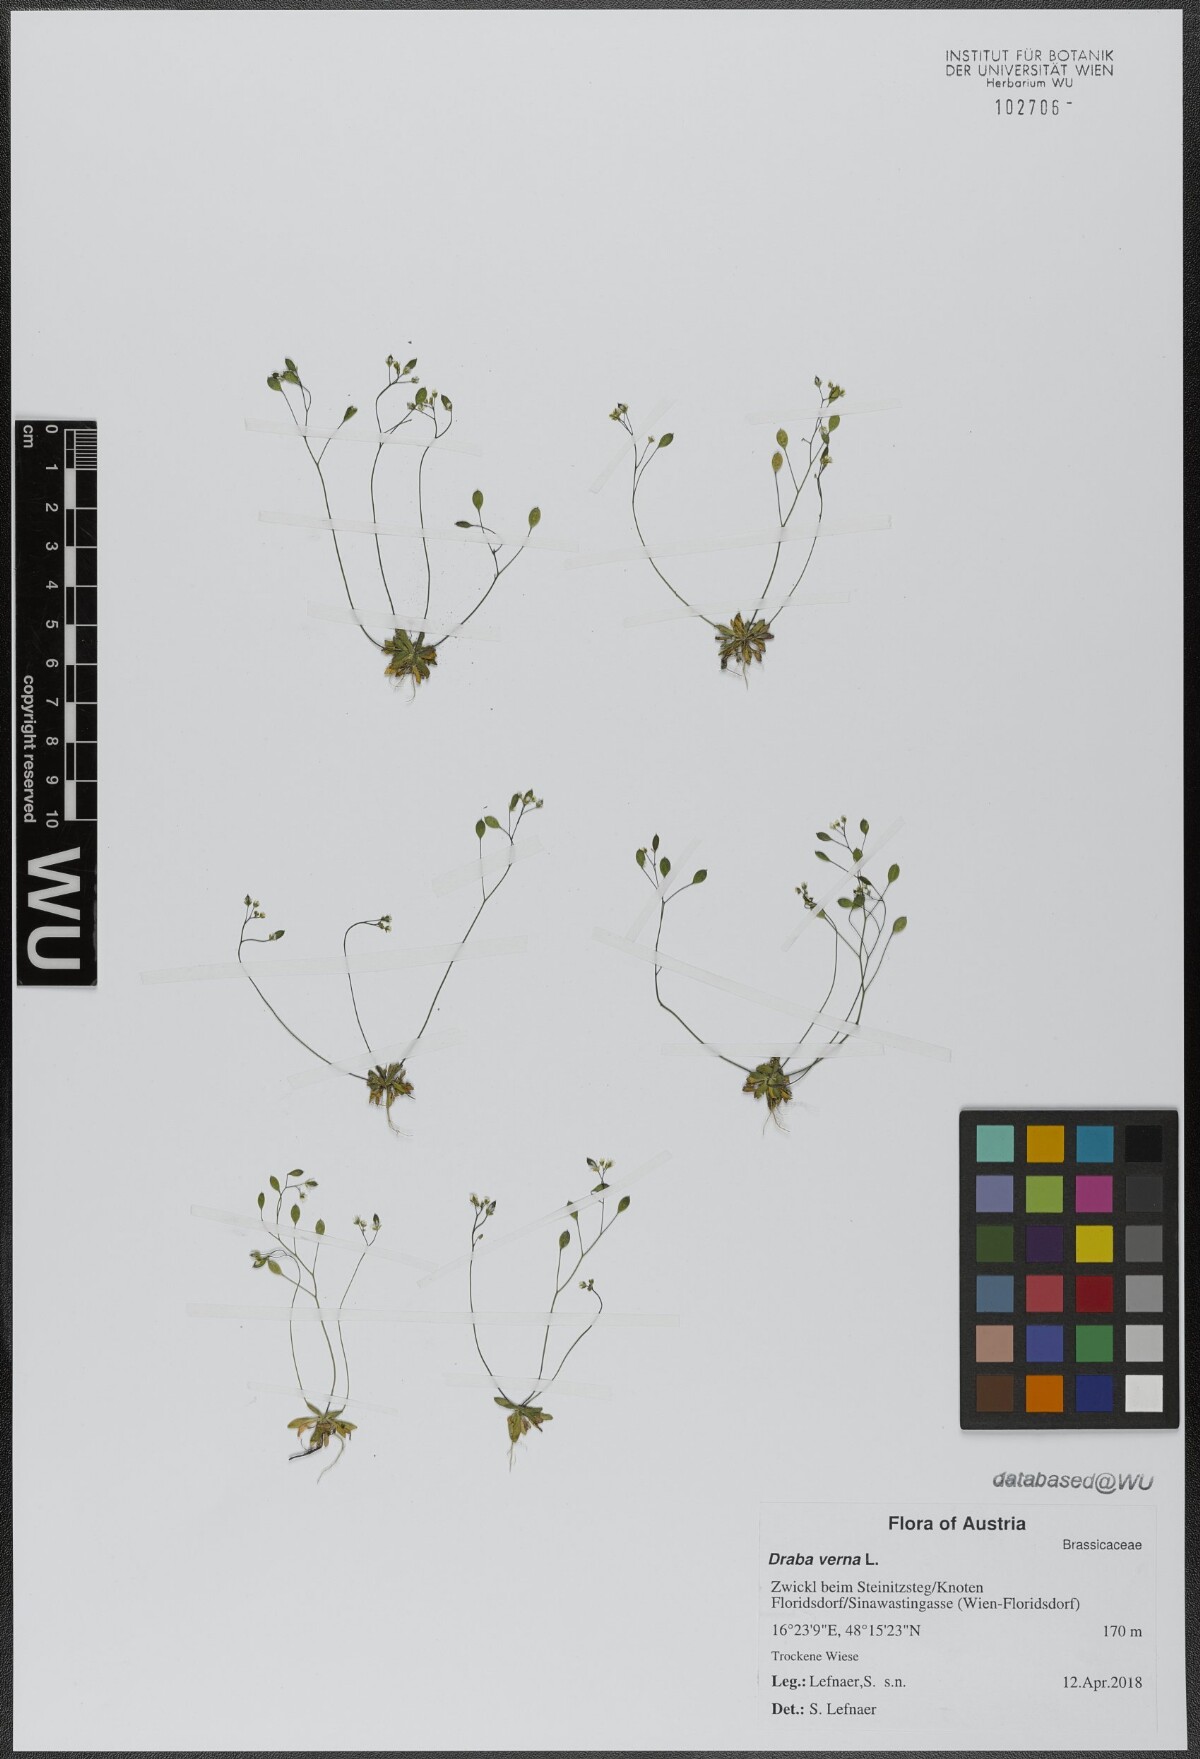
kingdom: Plantae
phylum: Tracheophyta
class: Magnoliopsida
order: Brassicales
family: Brassicaceae
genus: Draba
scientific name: Draba verna
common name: Spring draba
